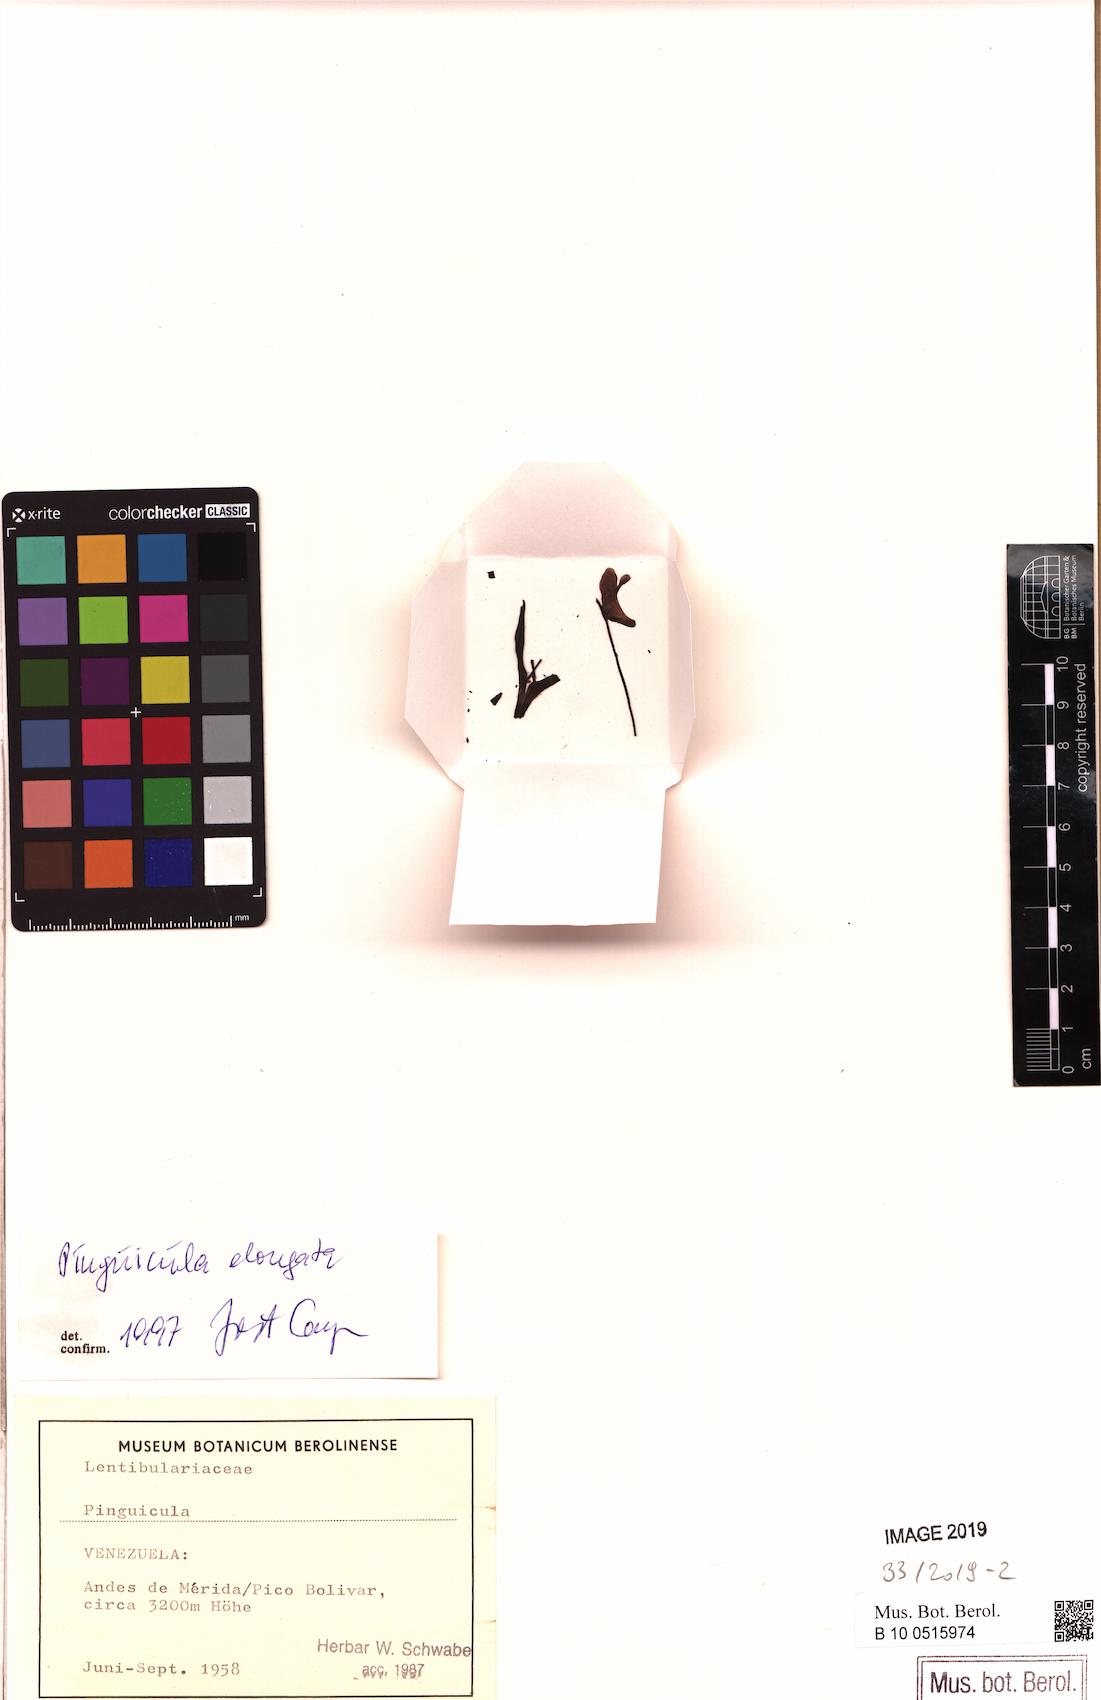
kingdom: Plantae
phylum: Tracheophyta
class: Magnoliopsida
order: Lamiales
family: Lentibulariaceae
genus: Pinguicula
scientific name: Pinguicula elongata
